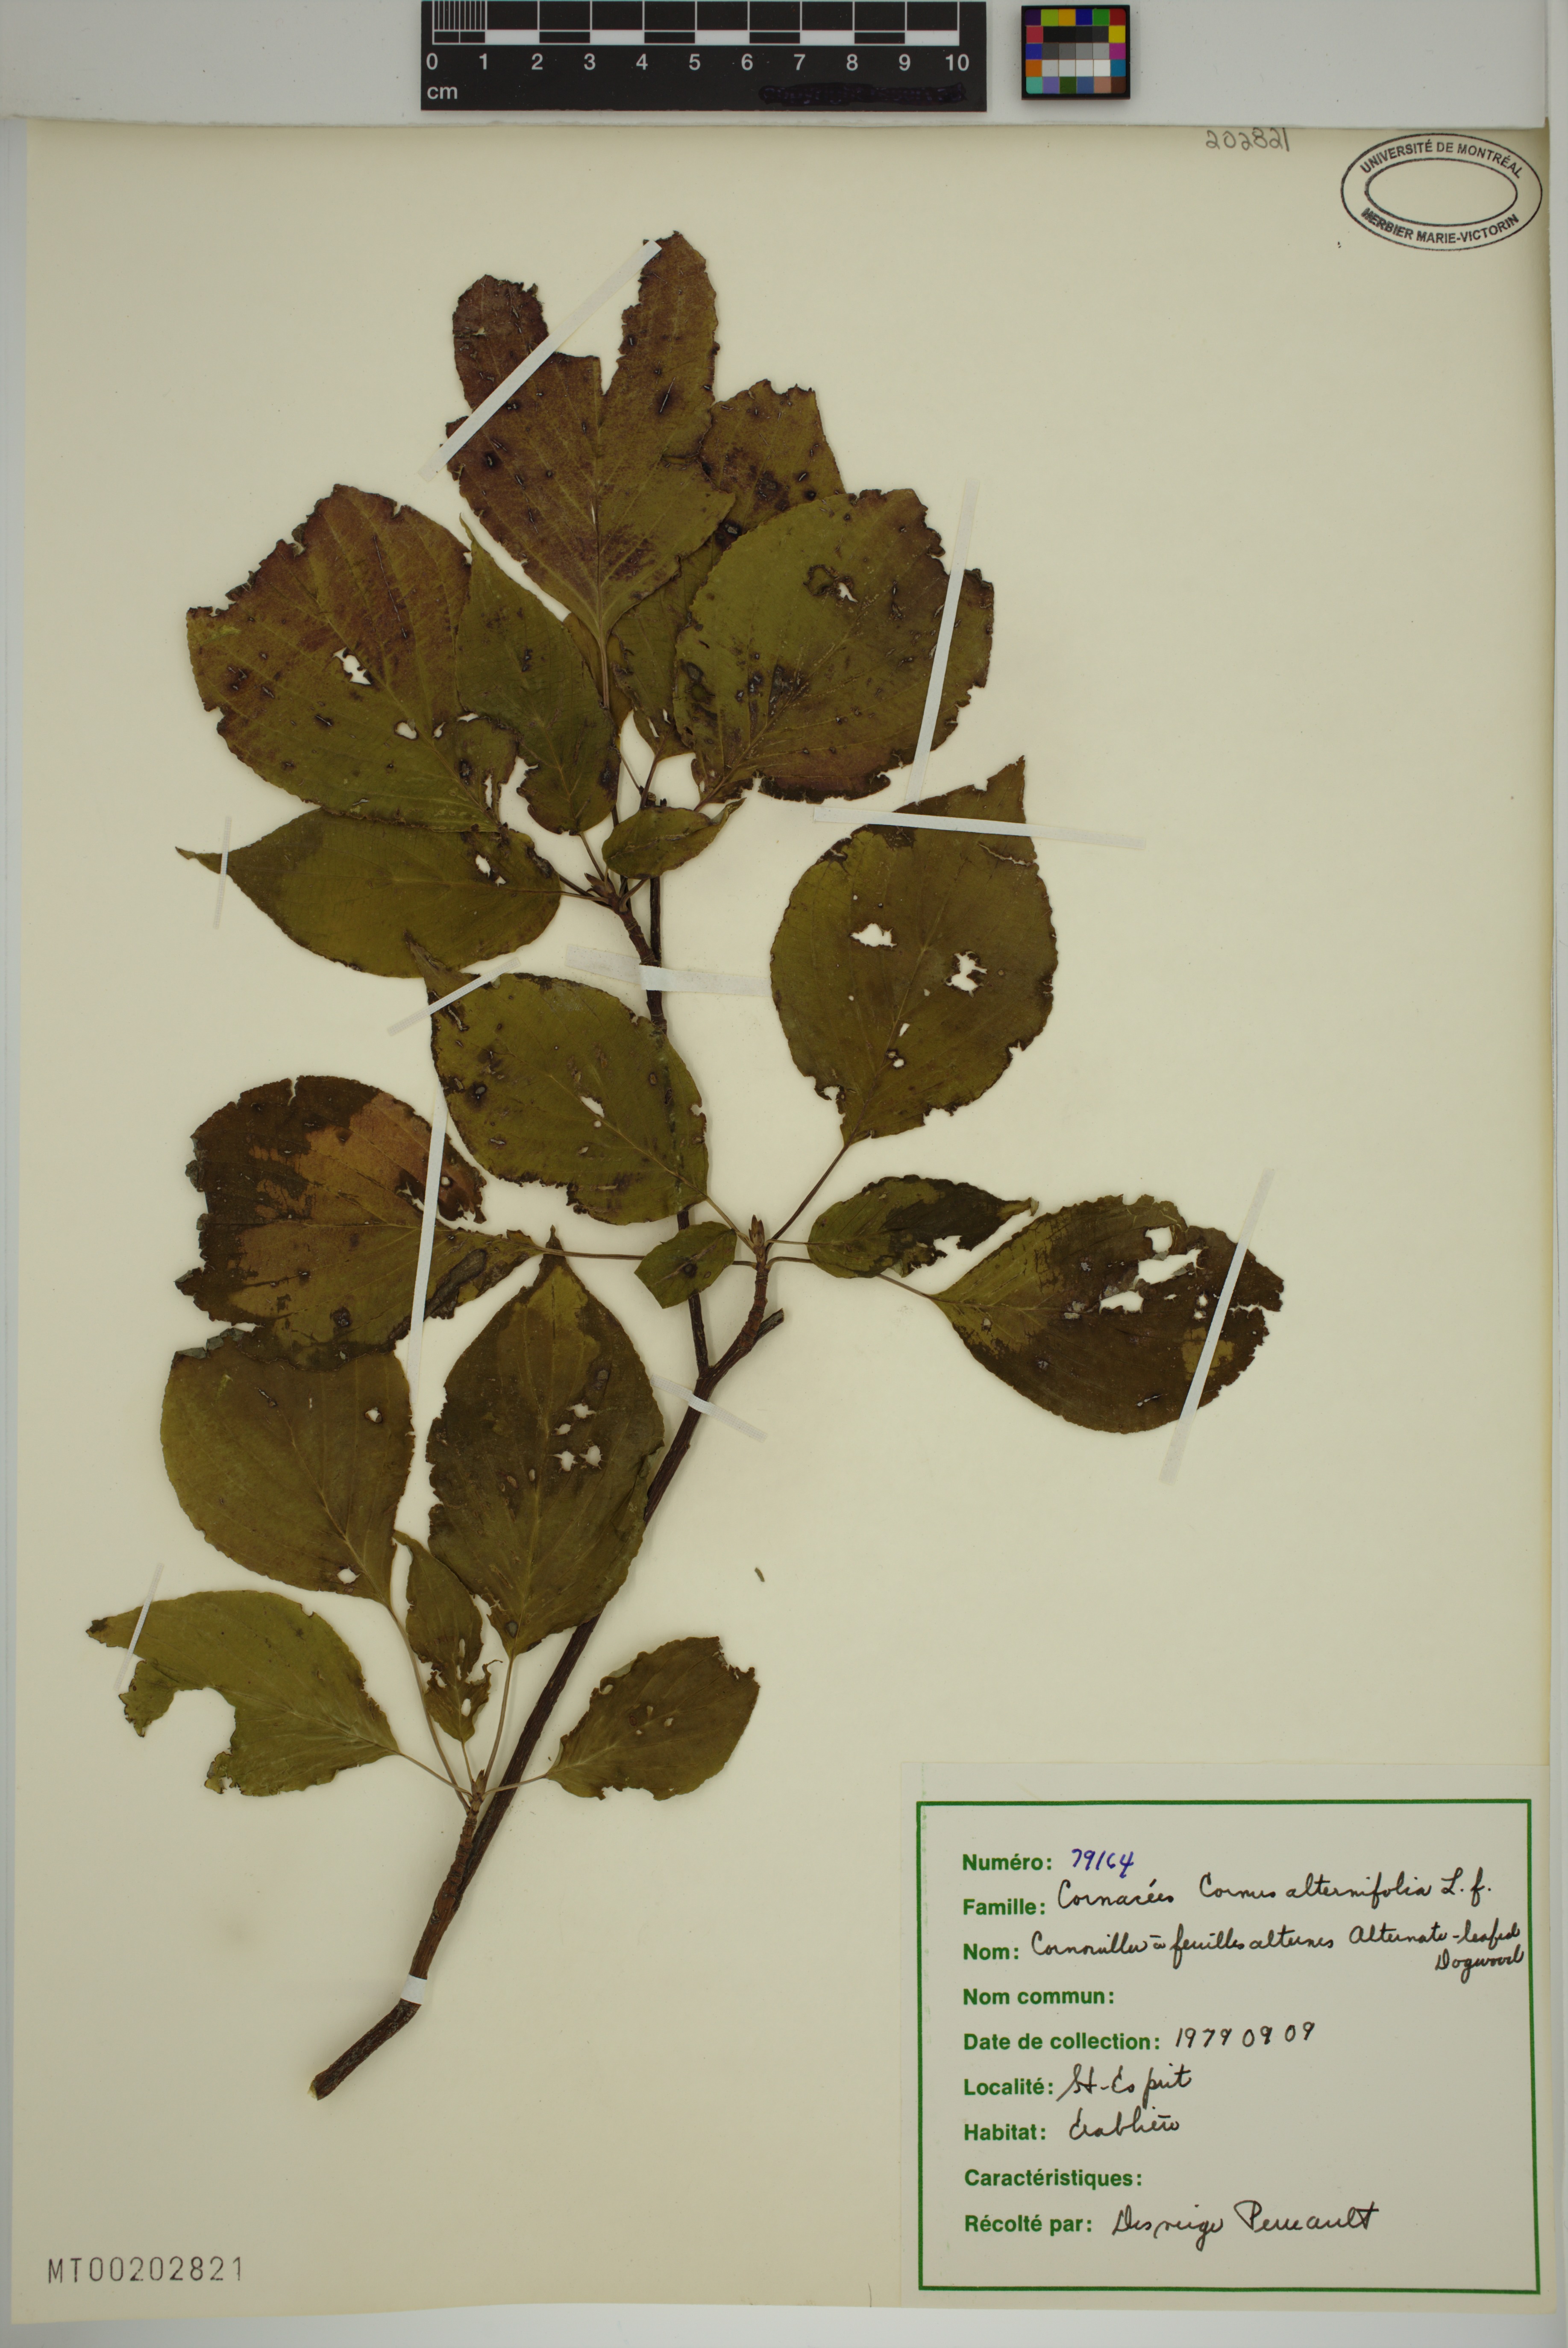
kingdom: Plantae
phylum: Tracheophyta
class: Magnoliopsida
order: Cornales
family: Cornaceae
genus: Cornus
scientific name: Cornus alternifolia
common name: Pagoda dogwood
